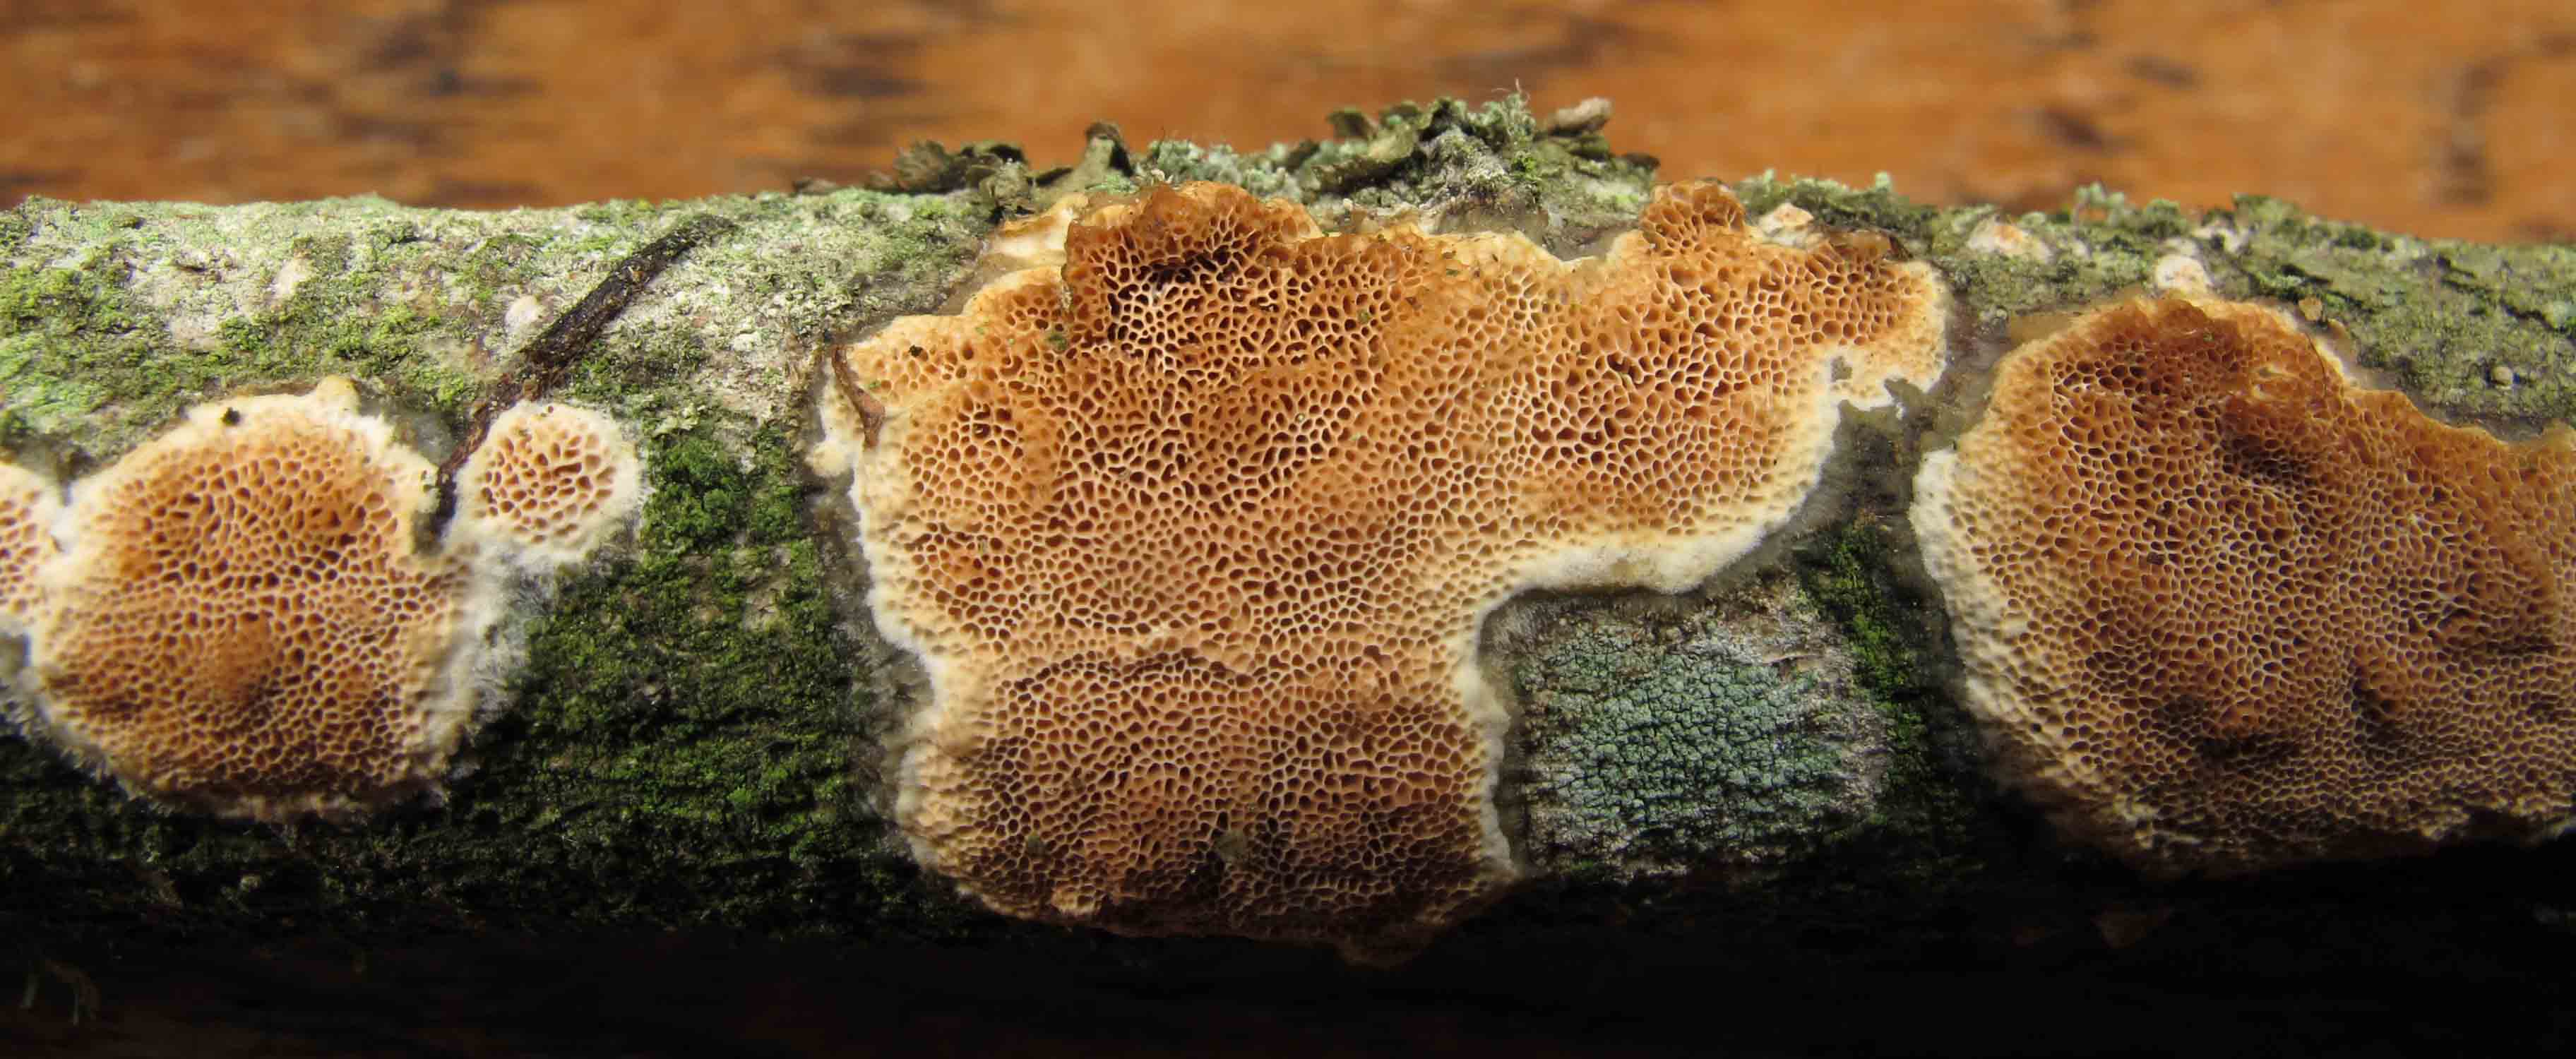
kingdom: Fungi
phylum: Basidiomycota
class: Agaricomycetes
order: Polyporales
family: Irpicaceae
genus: Resiniporus
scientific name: Resiniporus resinascens
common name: trist pastelporesvamp
